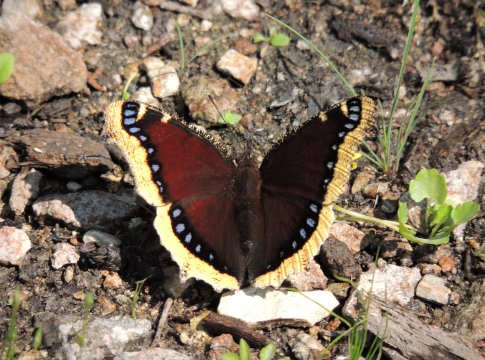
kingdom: Animalia
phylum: Arthropoda
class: Insecta
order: Lepidoptera
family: Nymphalidae
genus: Nymphalis
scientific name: Nymphalis antiopa
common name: Mourning Cloak
